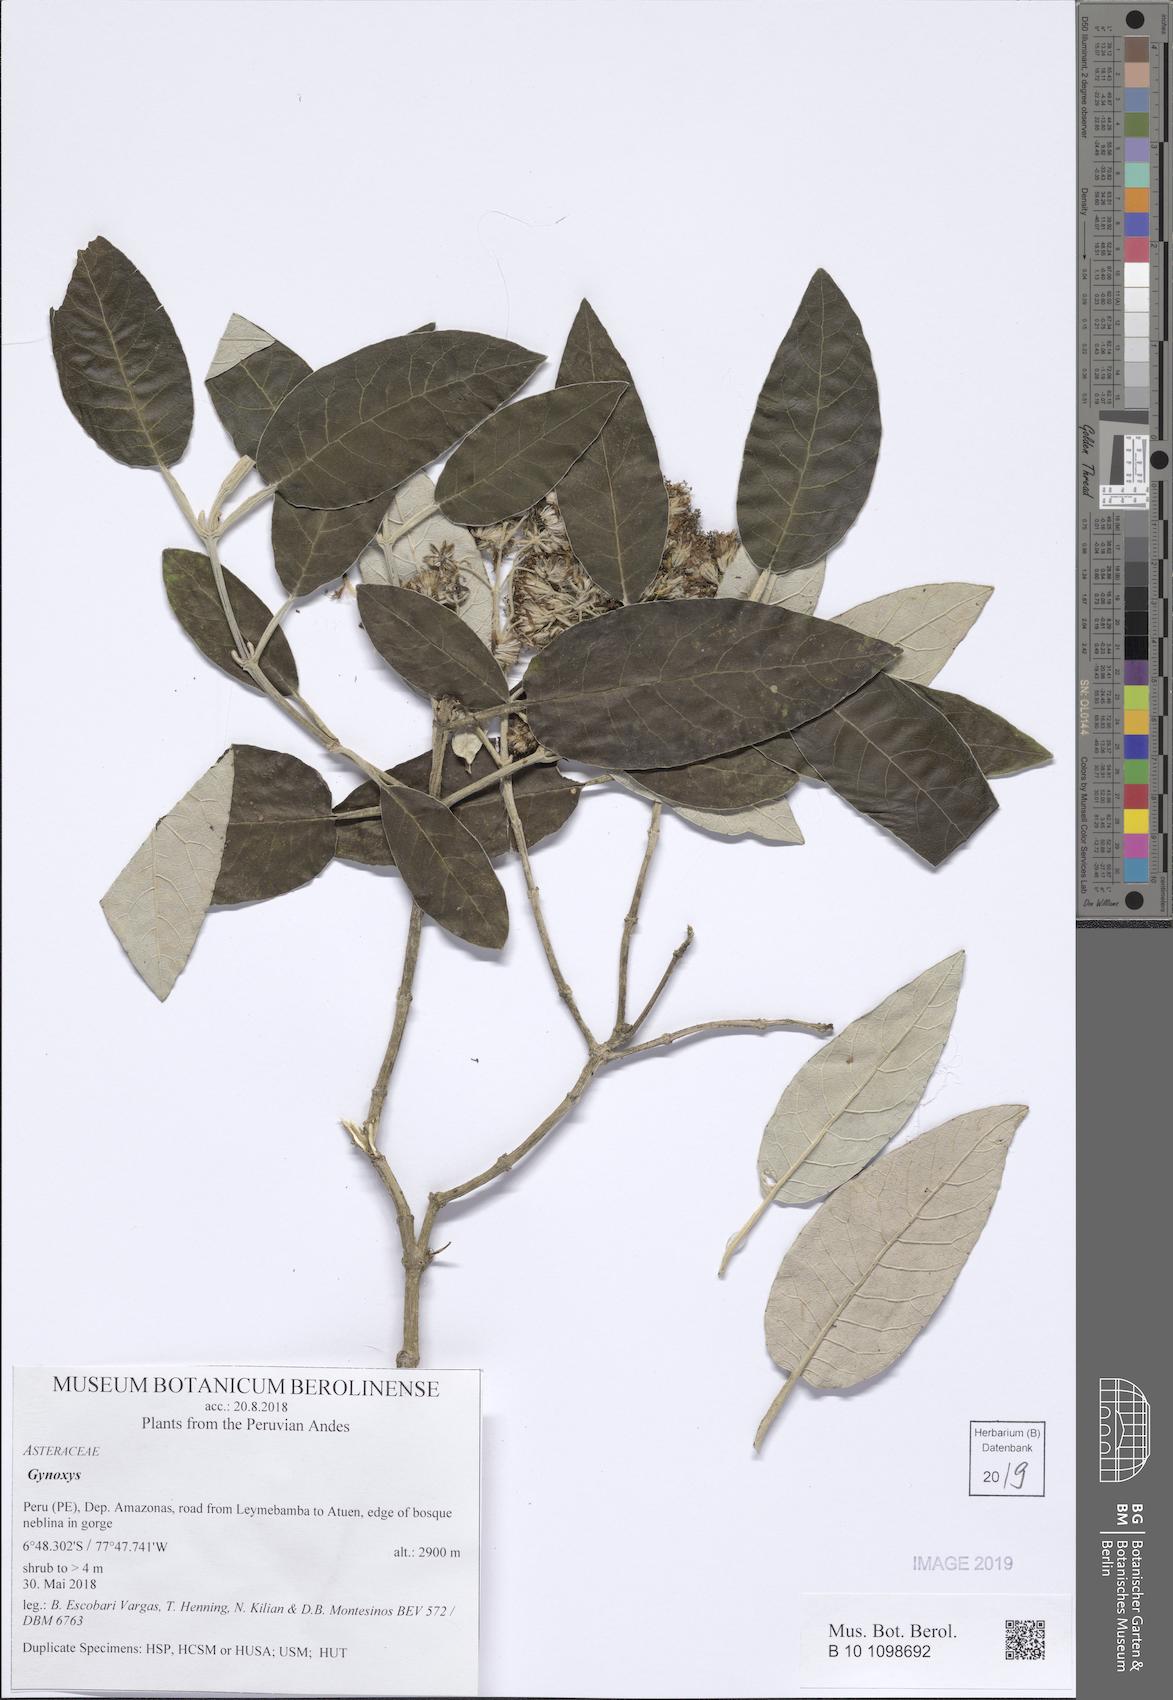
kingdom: Plantae
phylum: Tracheophyta
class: Magnoliopsida
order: Asterales
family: Asteraceae
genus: Gynoxys
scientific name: Gynoxys
